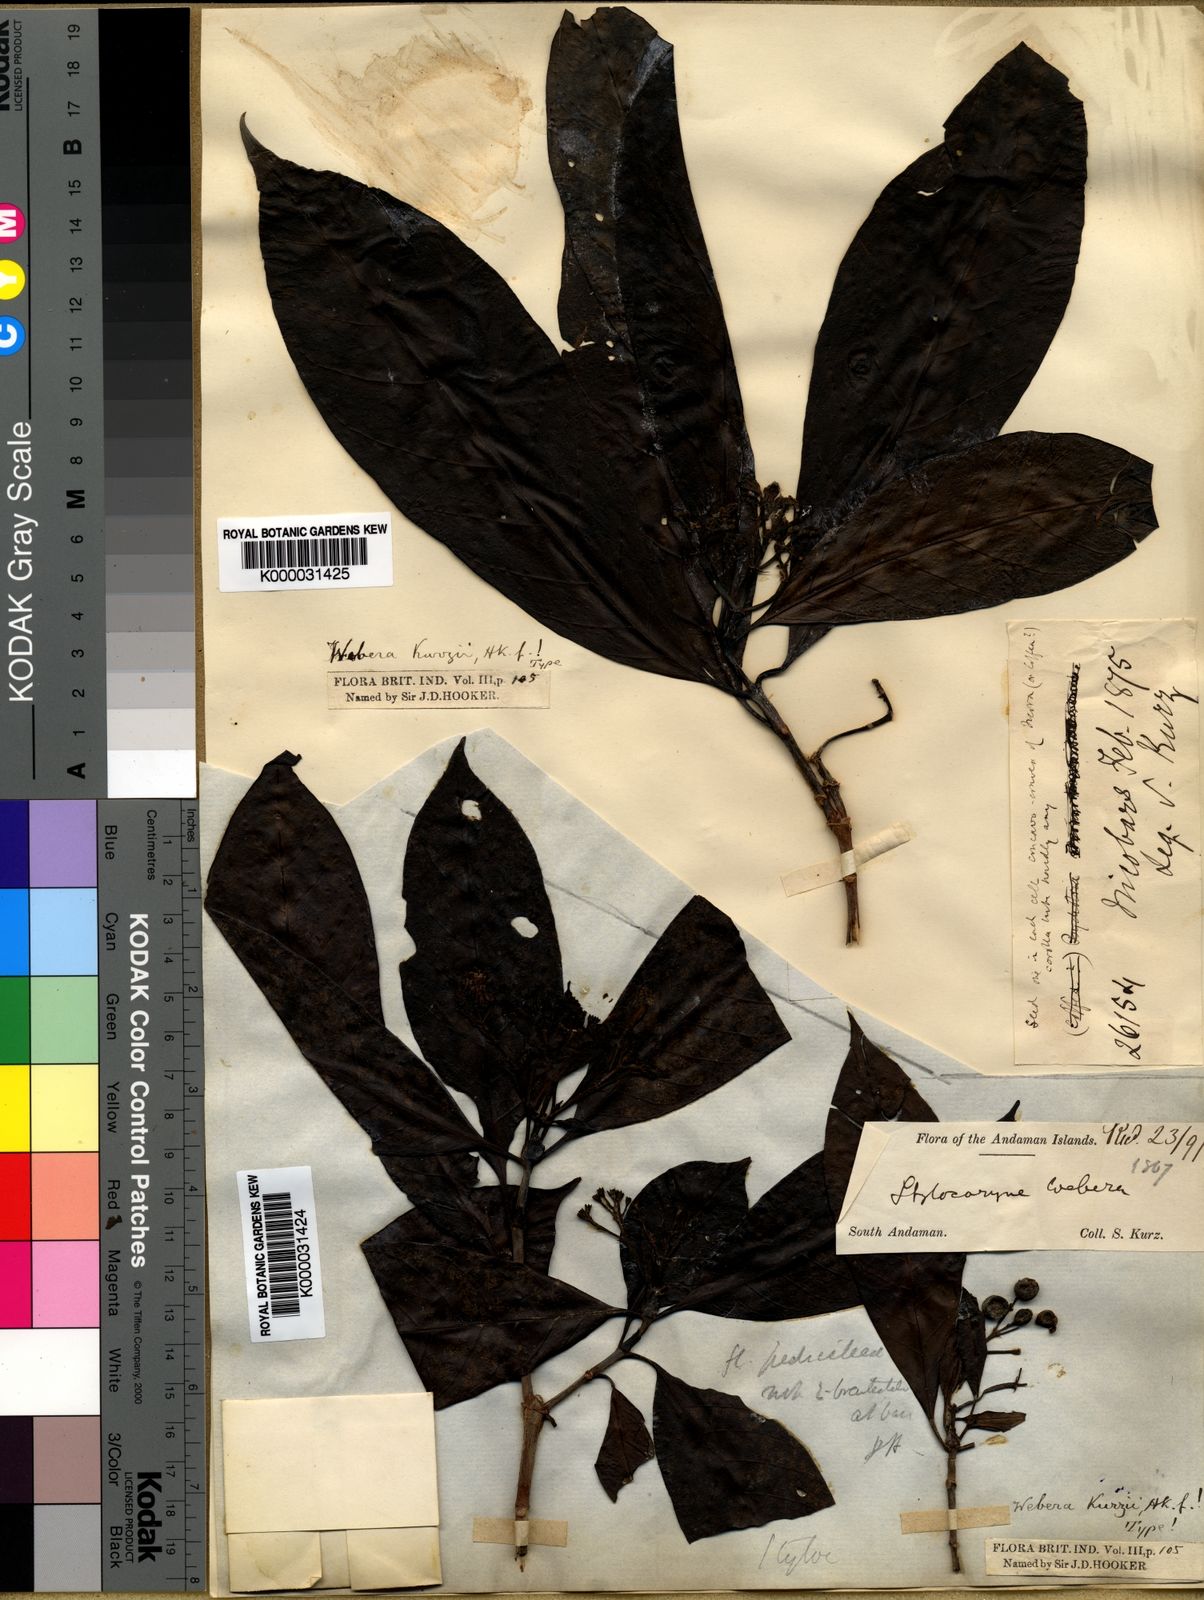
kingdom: Plantae
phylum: Tracheophyta
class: Magnoliopsida
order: Gentianales
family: Rubiaceae
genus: Tarenna
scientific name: Tarenna
